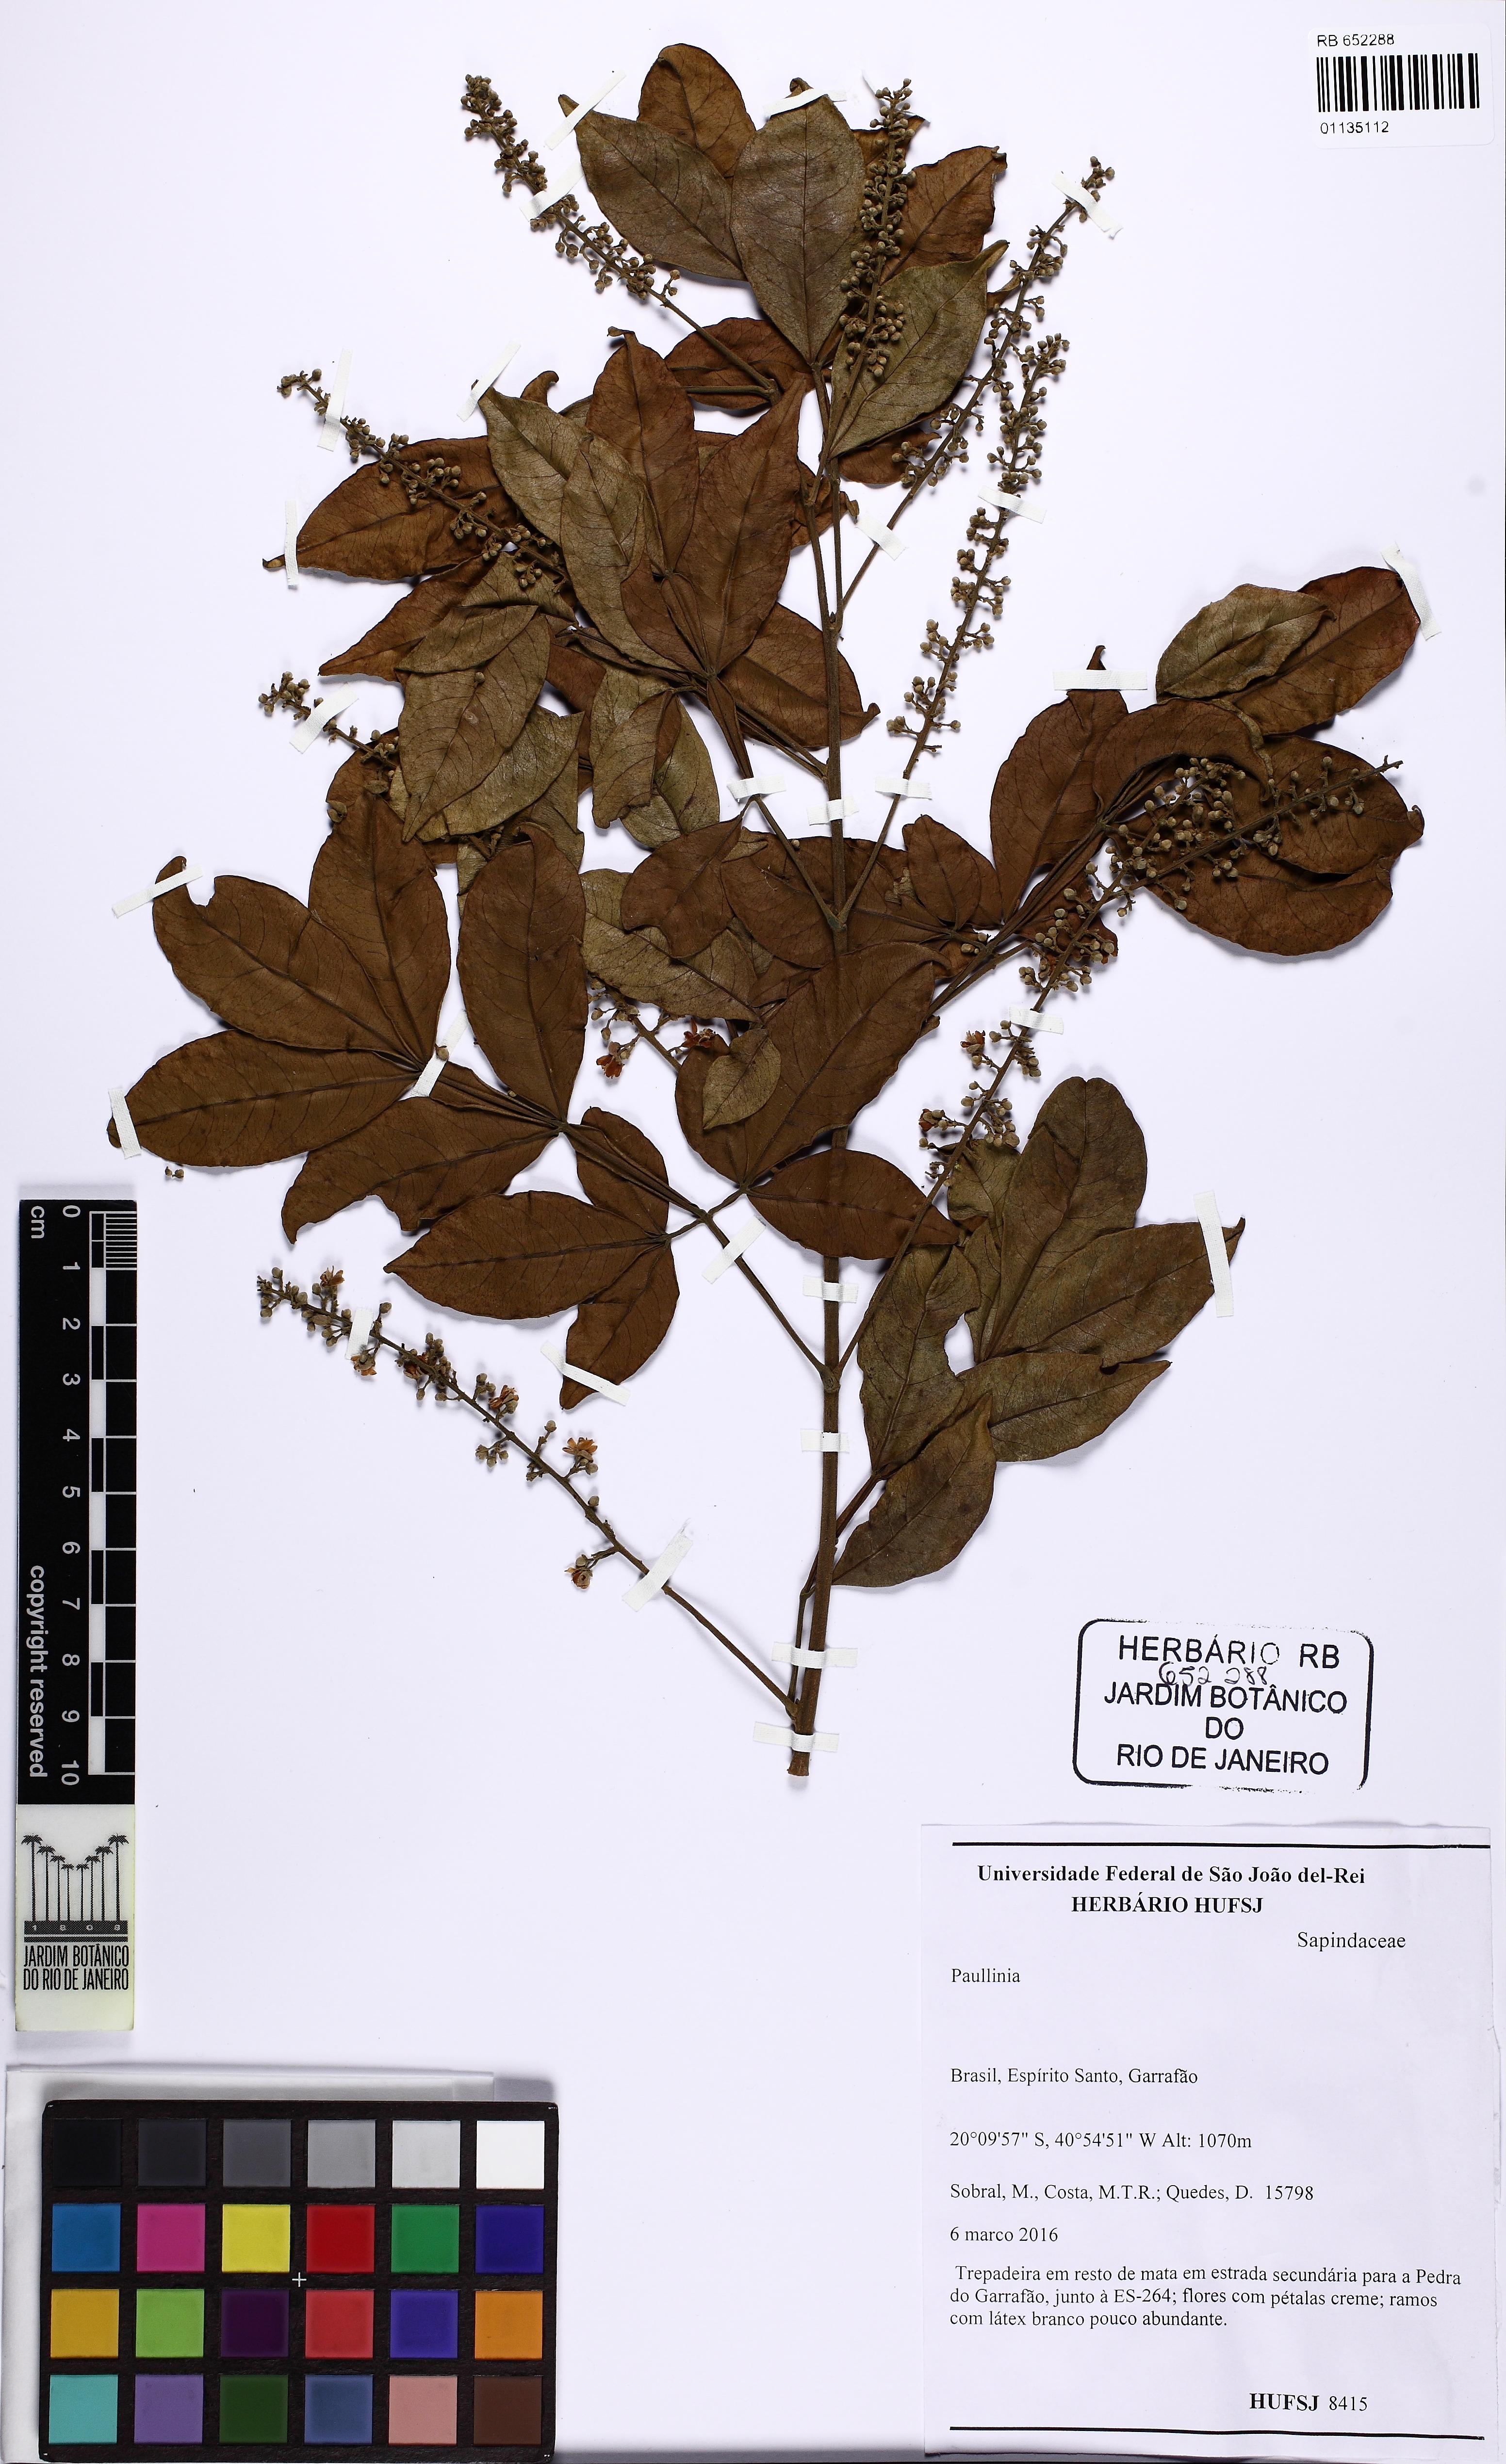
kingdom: Plantae
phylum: Tracheophyta
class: Magnoliopsida
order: Sapindales
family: Sapindaceae
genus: Paullinia
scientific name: Paullinia
